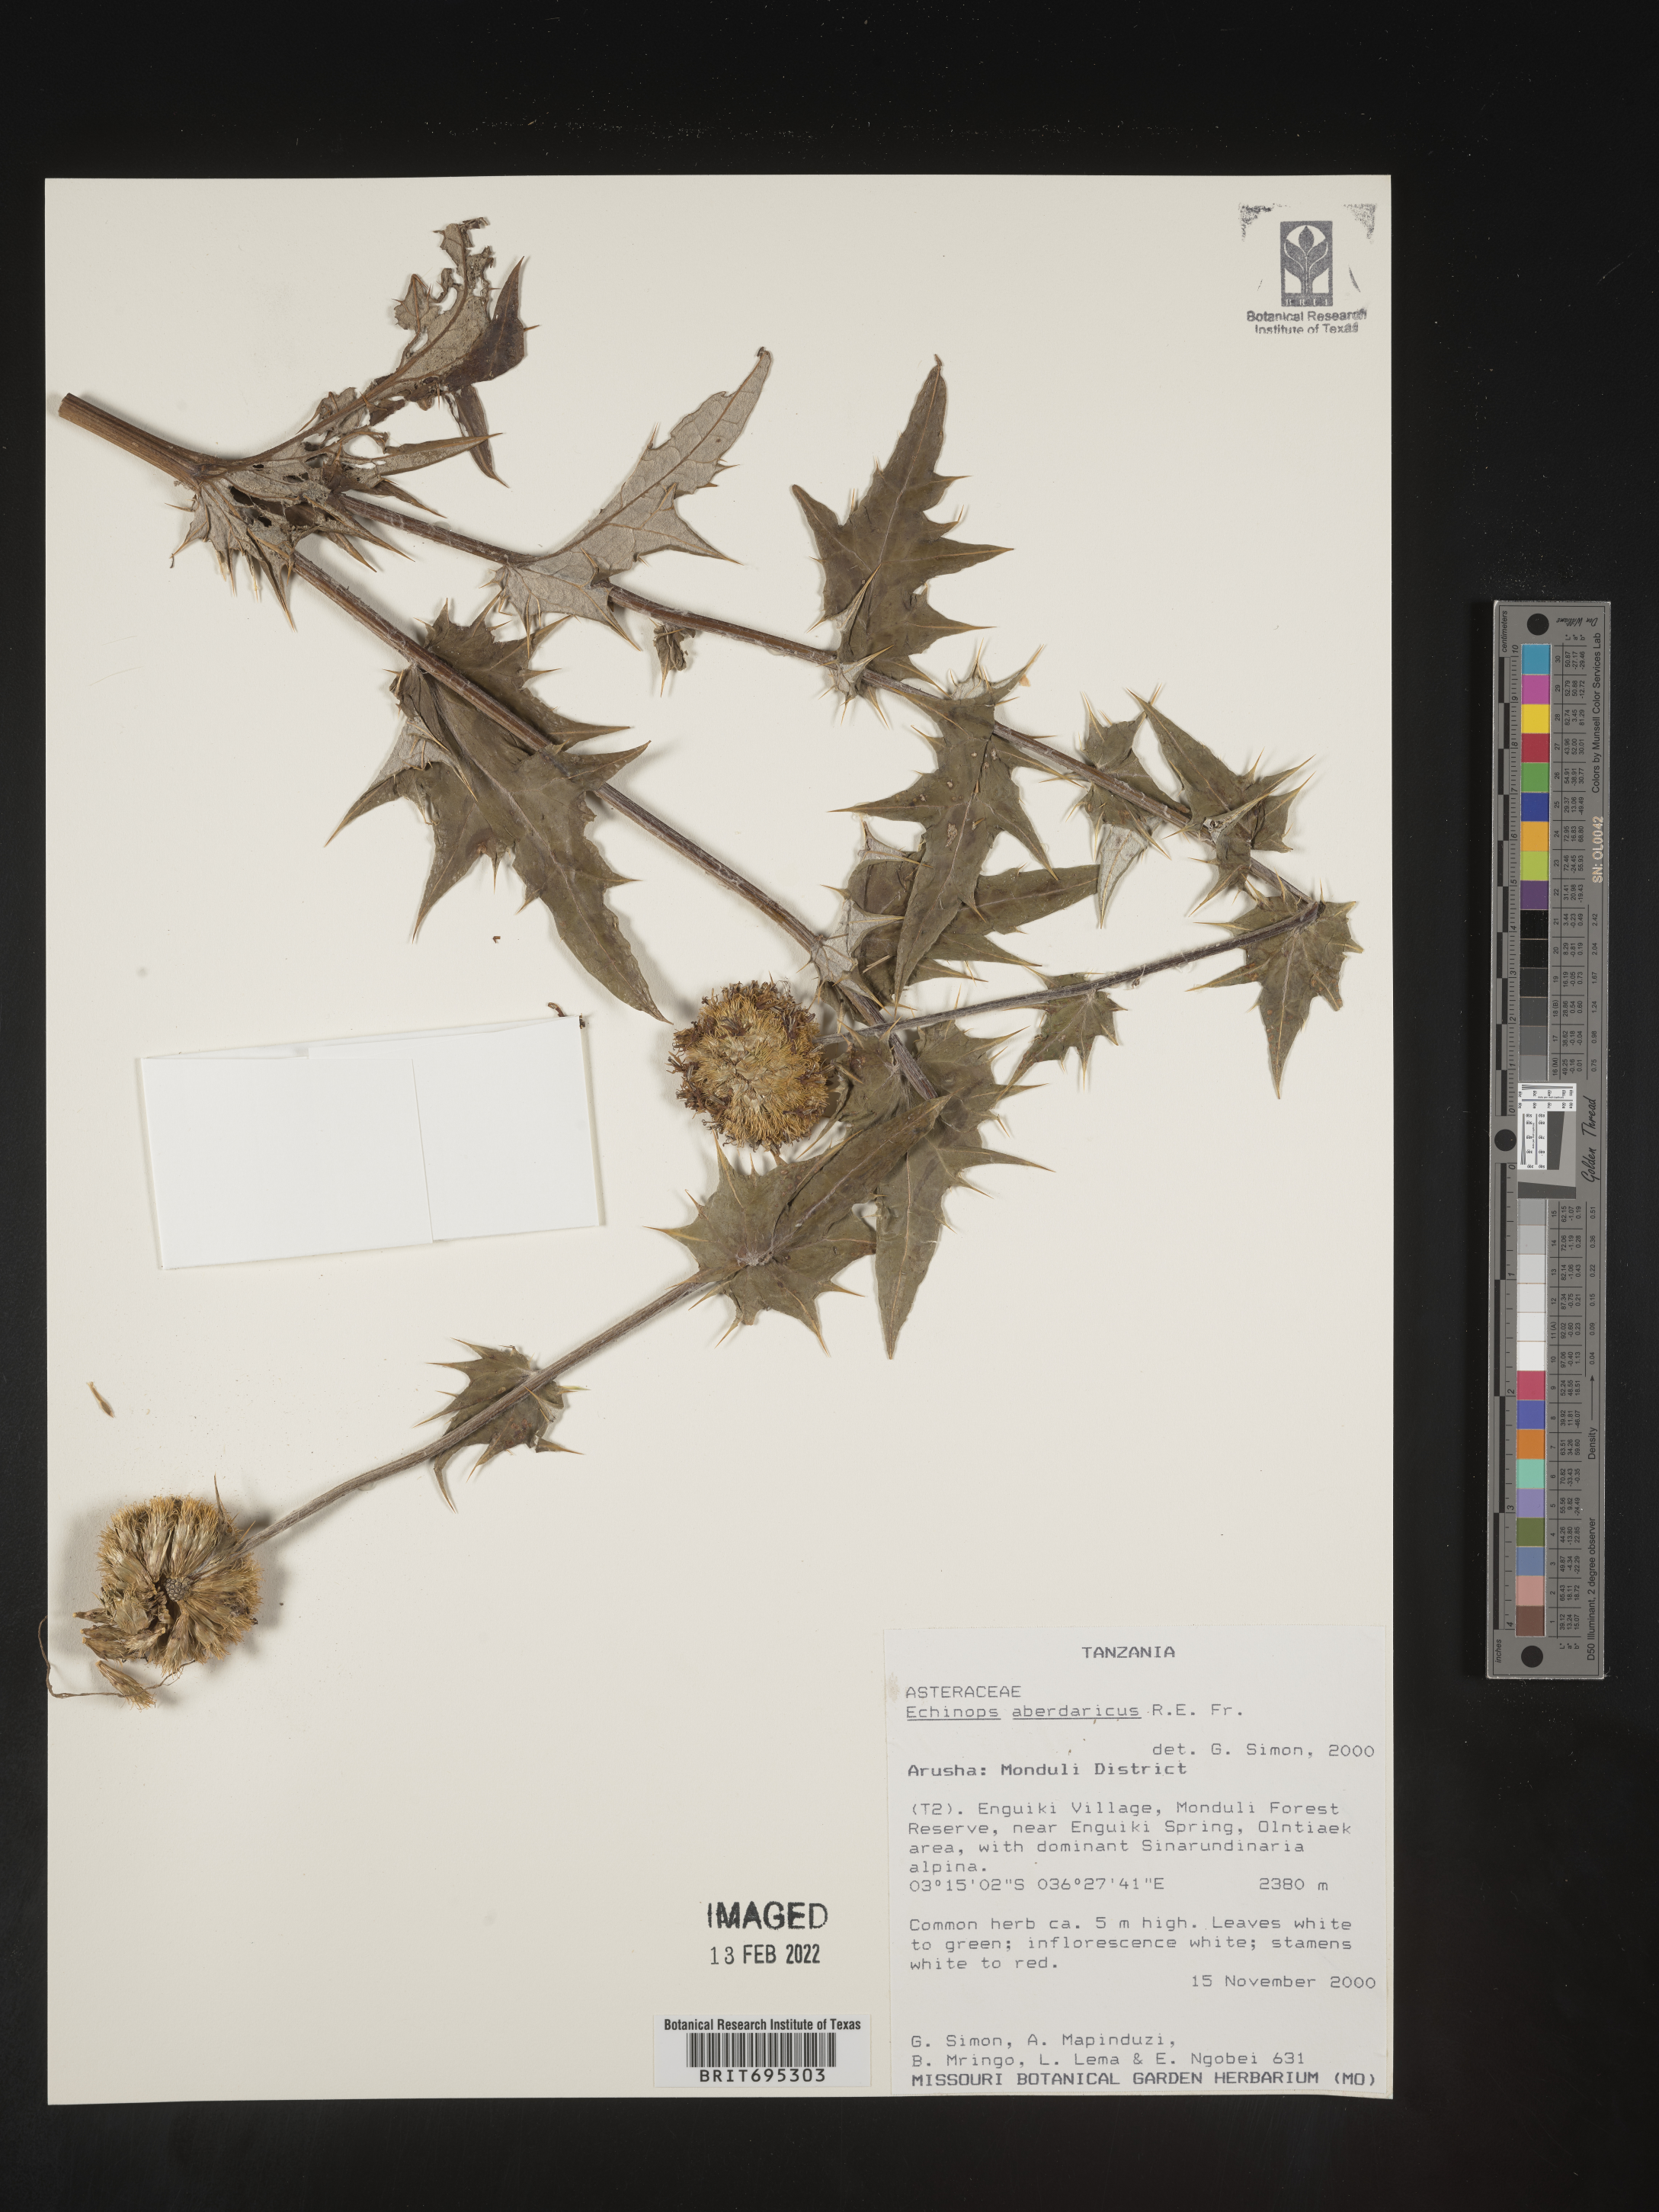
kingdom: Plantae
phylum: Tracheophyta
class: Magnoliopsida
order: Asterales
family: Asteraceae
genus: Echinops
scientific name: Echinops
